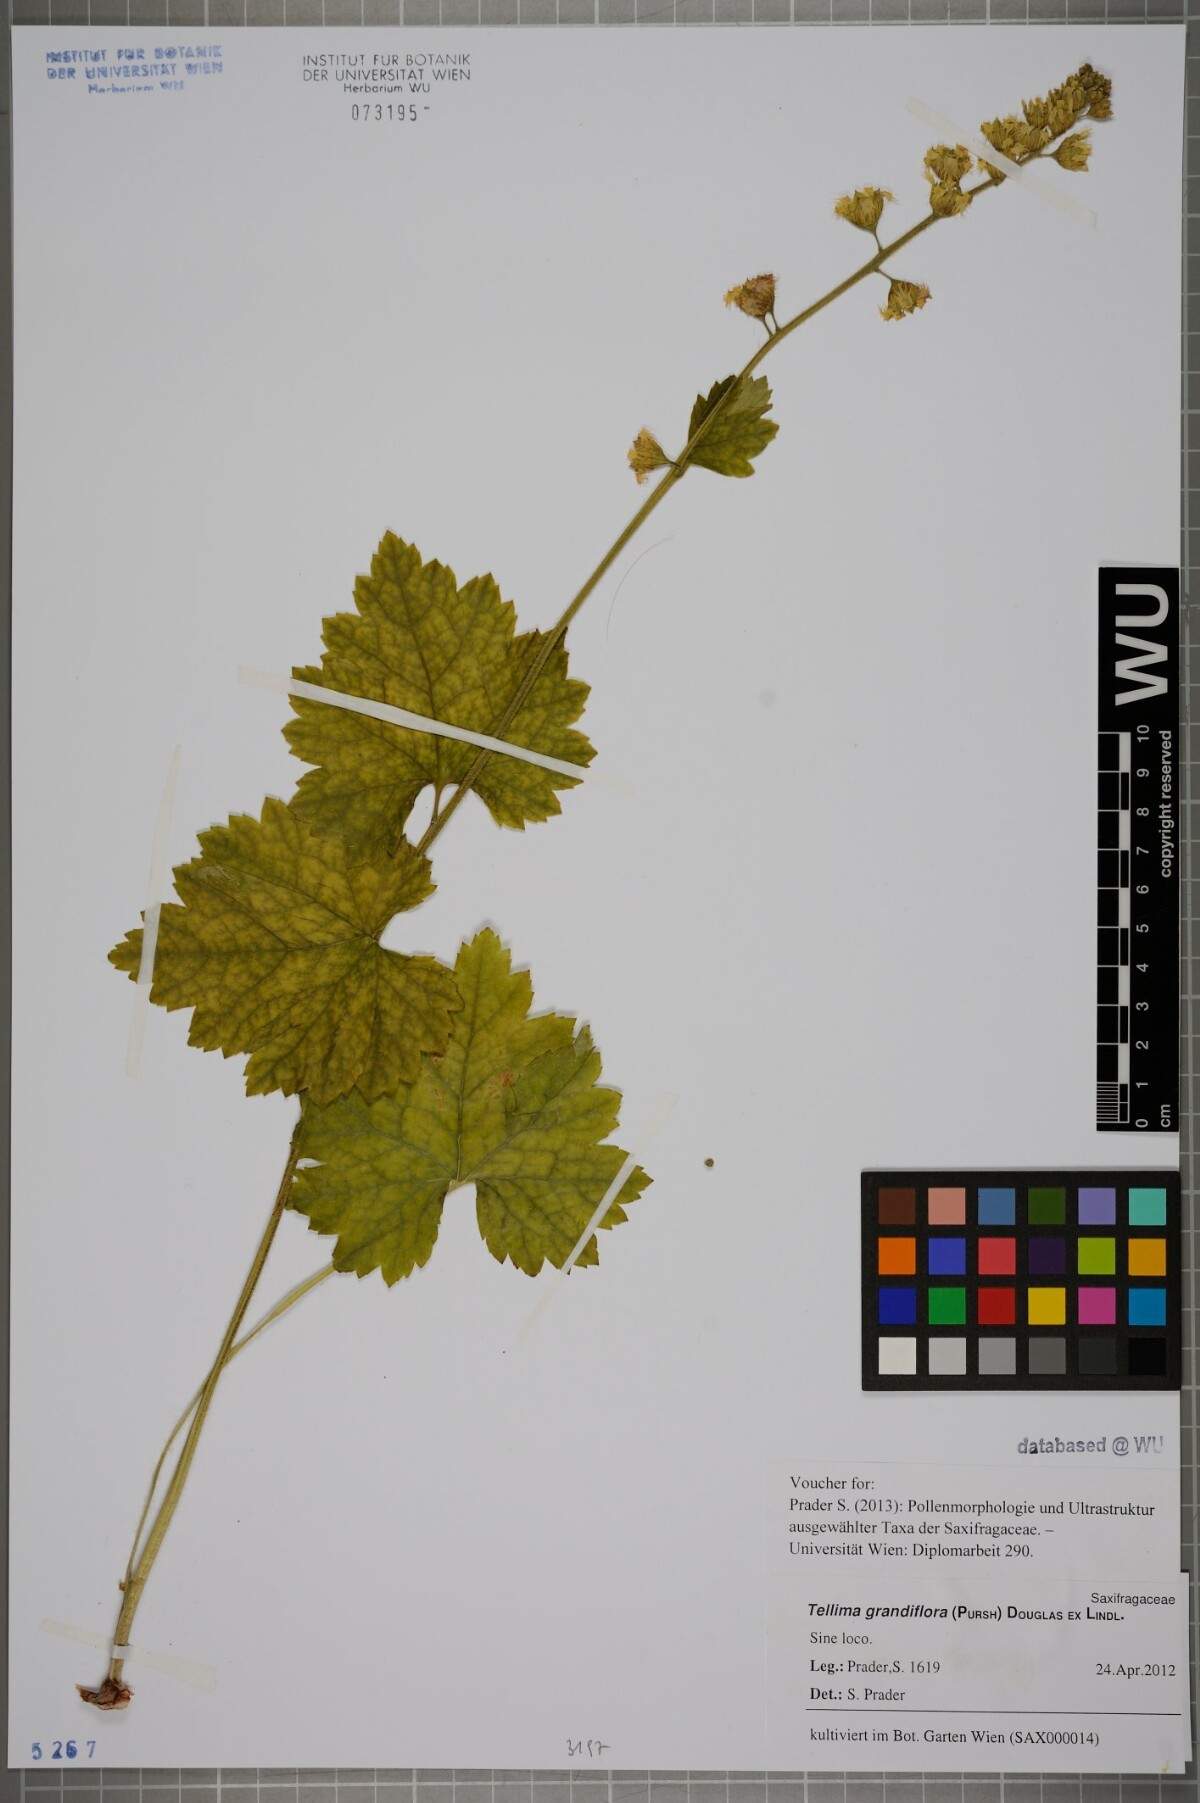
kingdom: Plantae
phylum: Tracheophyta
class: Magnoliopsida
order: Saxifragales
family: Saxifragaceae
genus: Tellima
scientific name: Tellima grandiflora
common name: Fringecups
